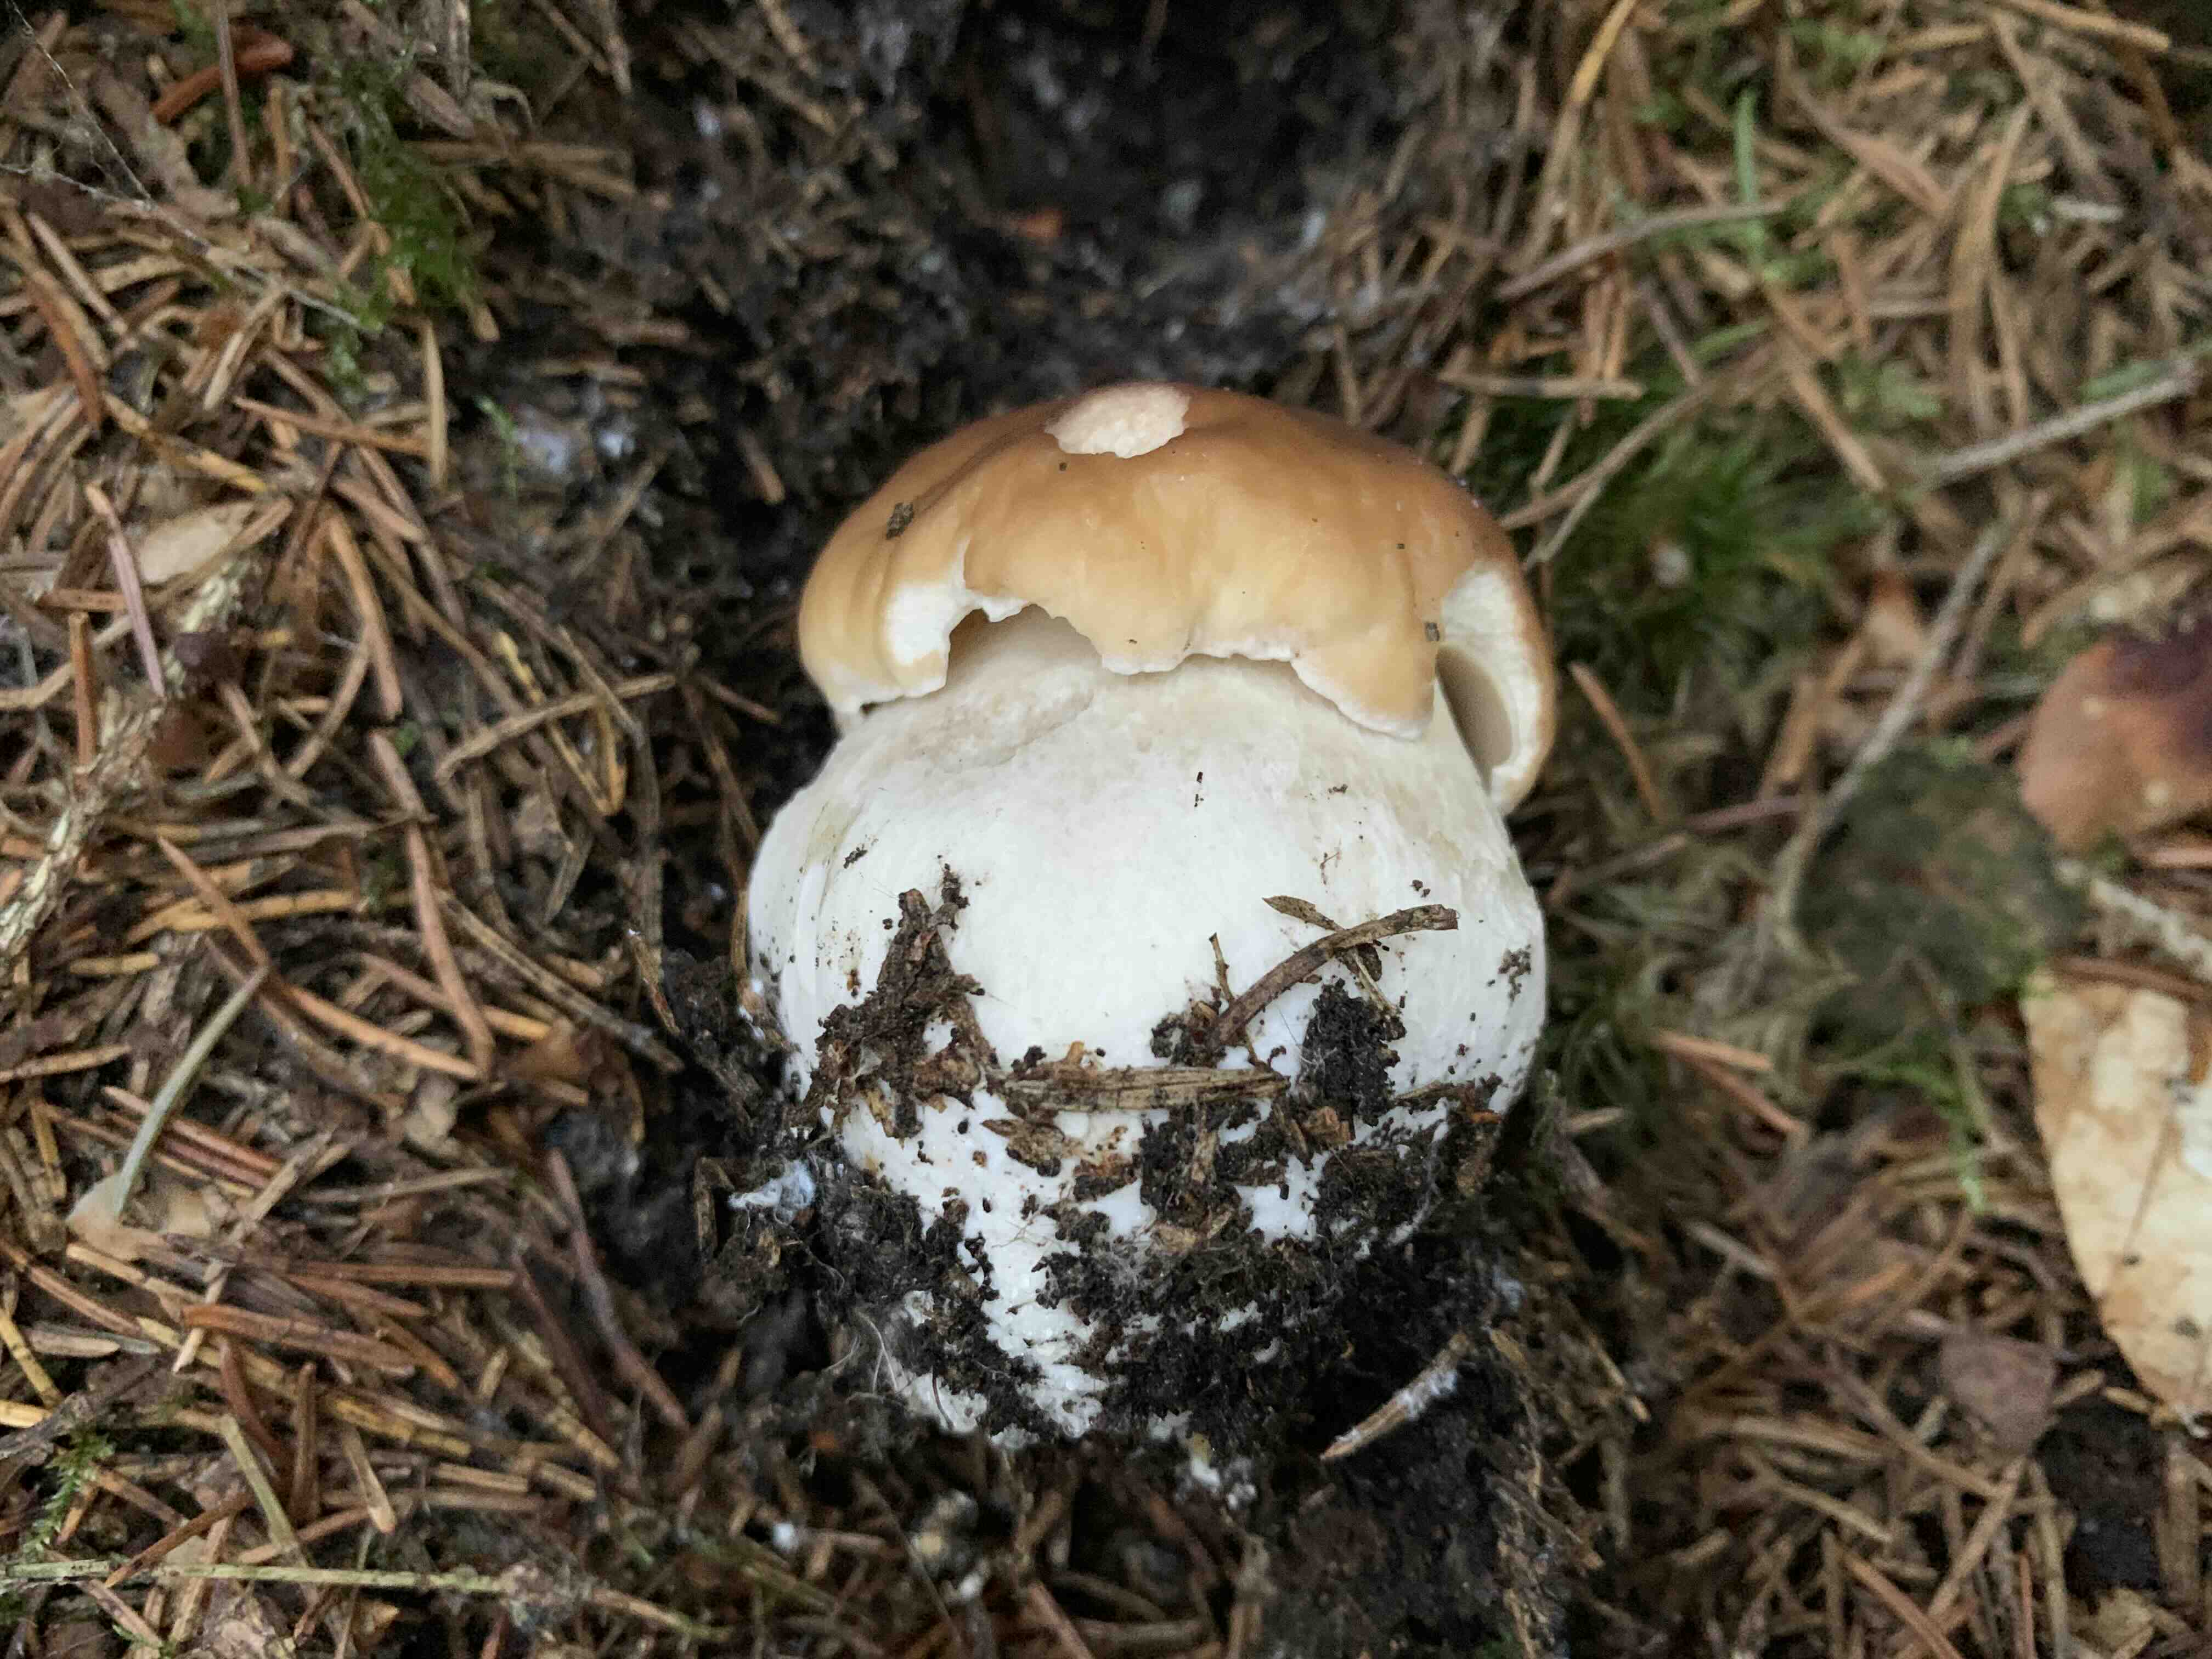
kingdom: Fungi
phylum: Basidiomycota
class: Agaricomycetes
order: Boletales
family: Boletaceae
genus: Boletus
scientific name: Boletus edulis
